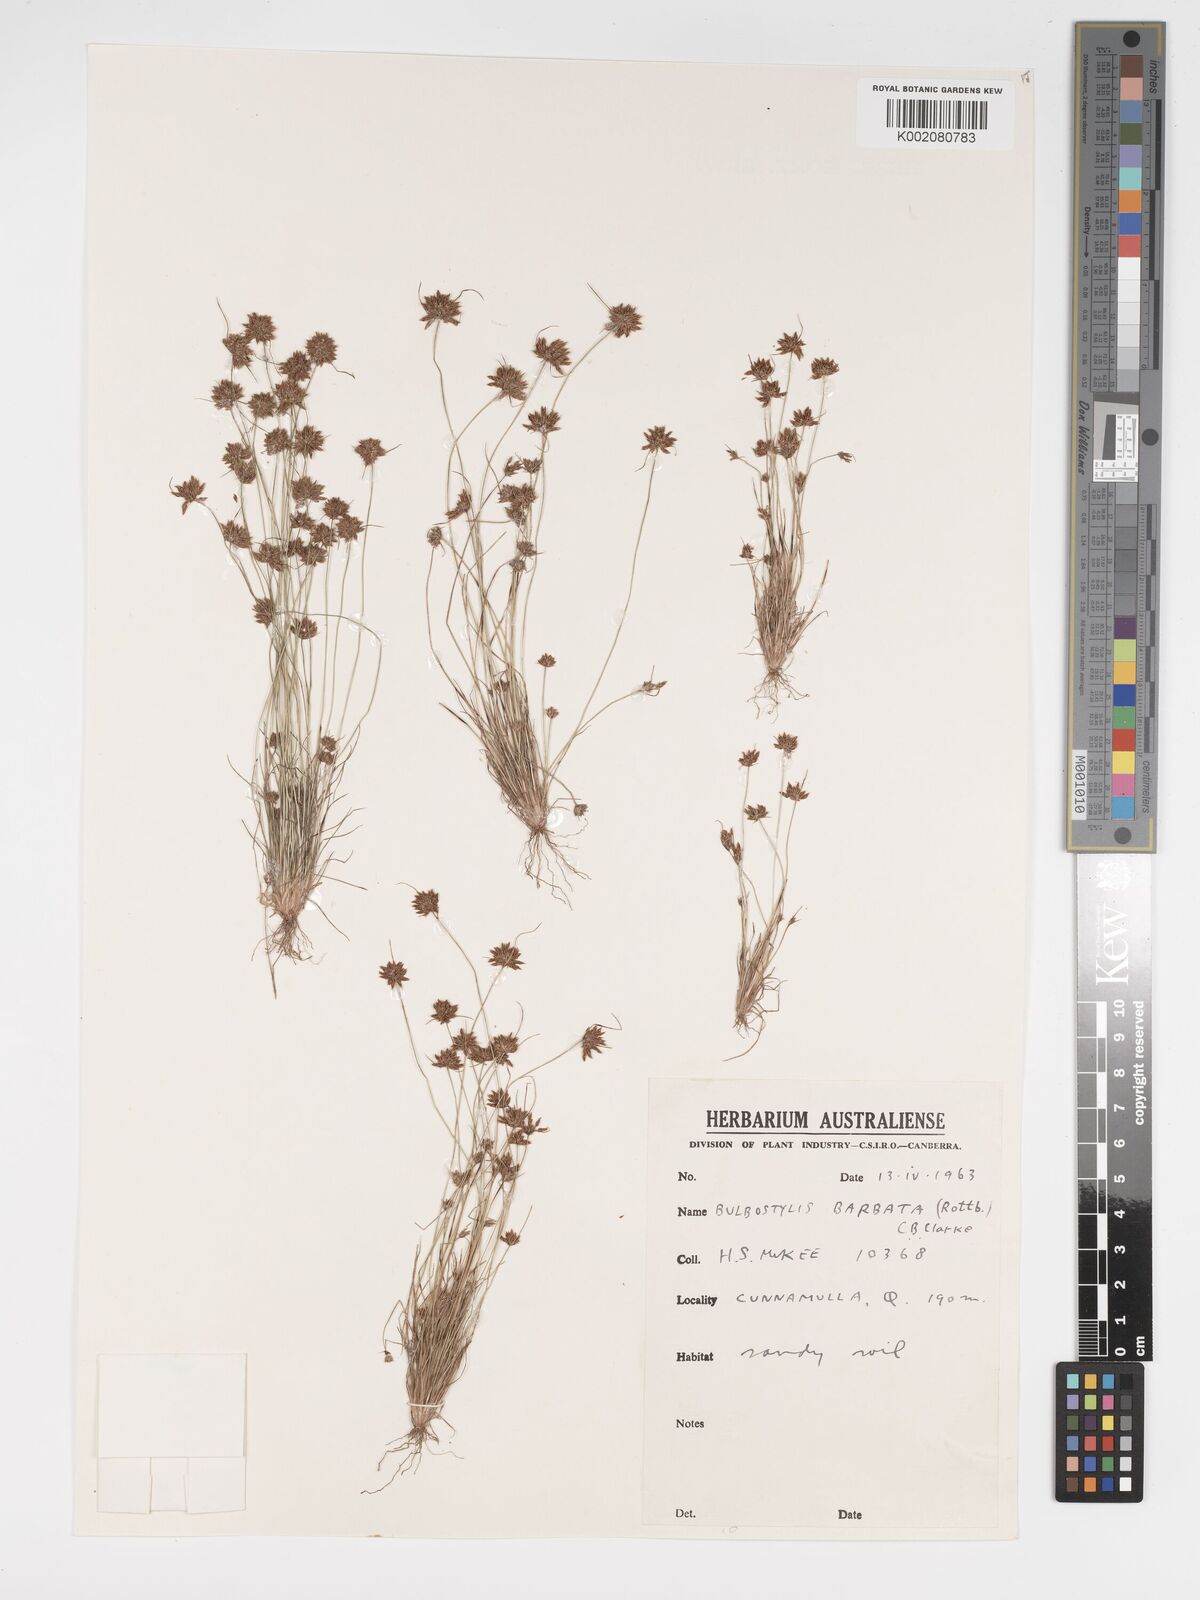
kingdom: Plantae
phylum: Tracheophyta
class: Liliopsida
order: Poales
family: Cyperaceae
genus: Bulbostylis
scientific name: Bulbostylis barbata
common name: Watergrass
